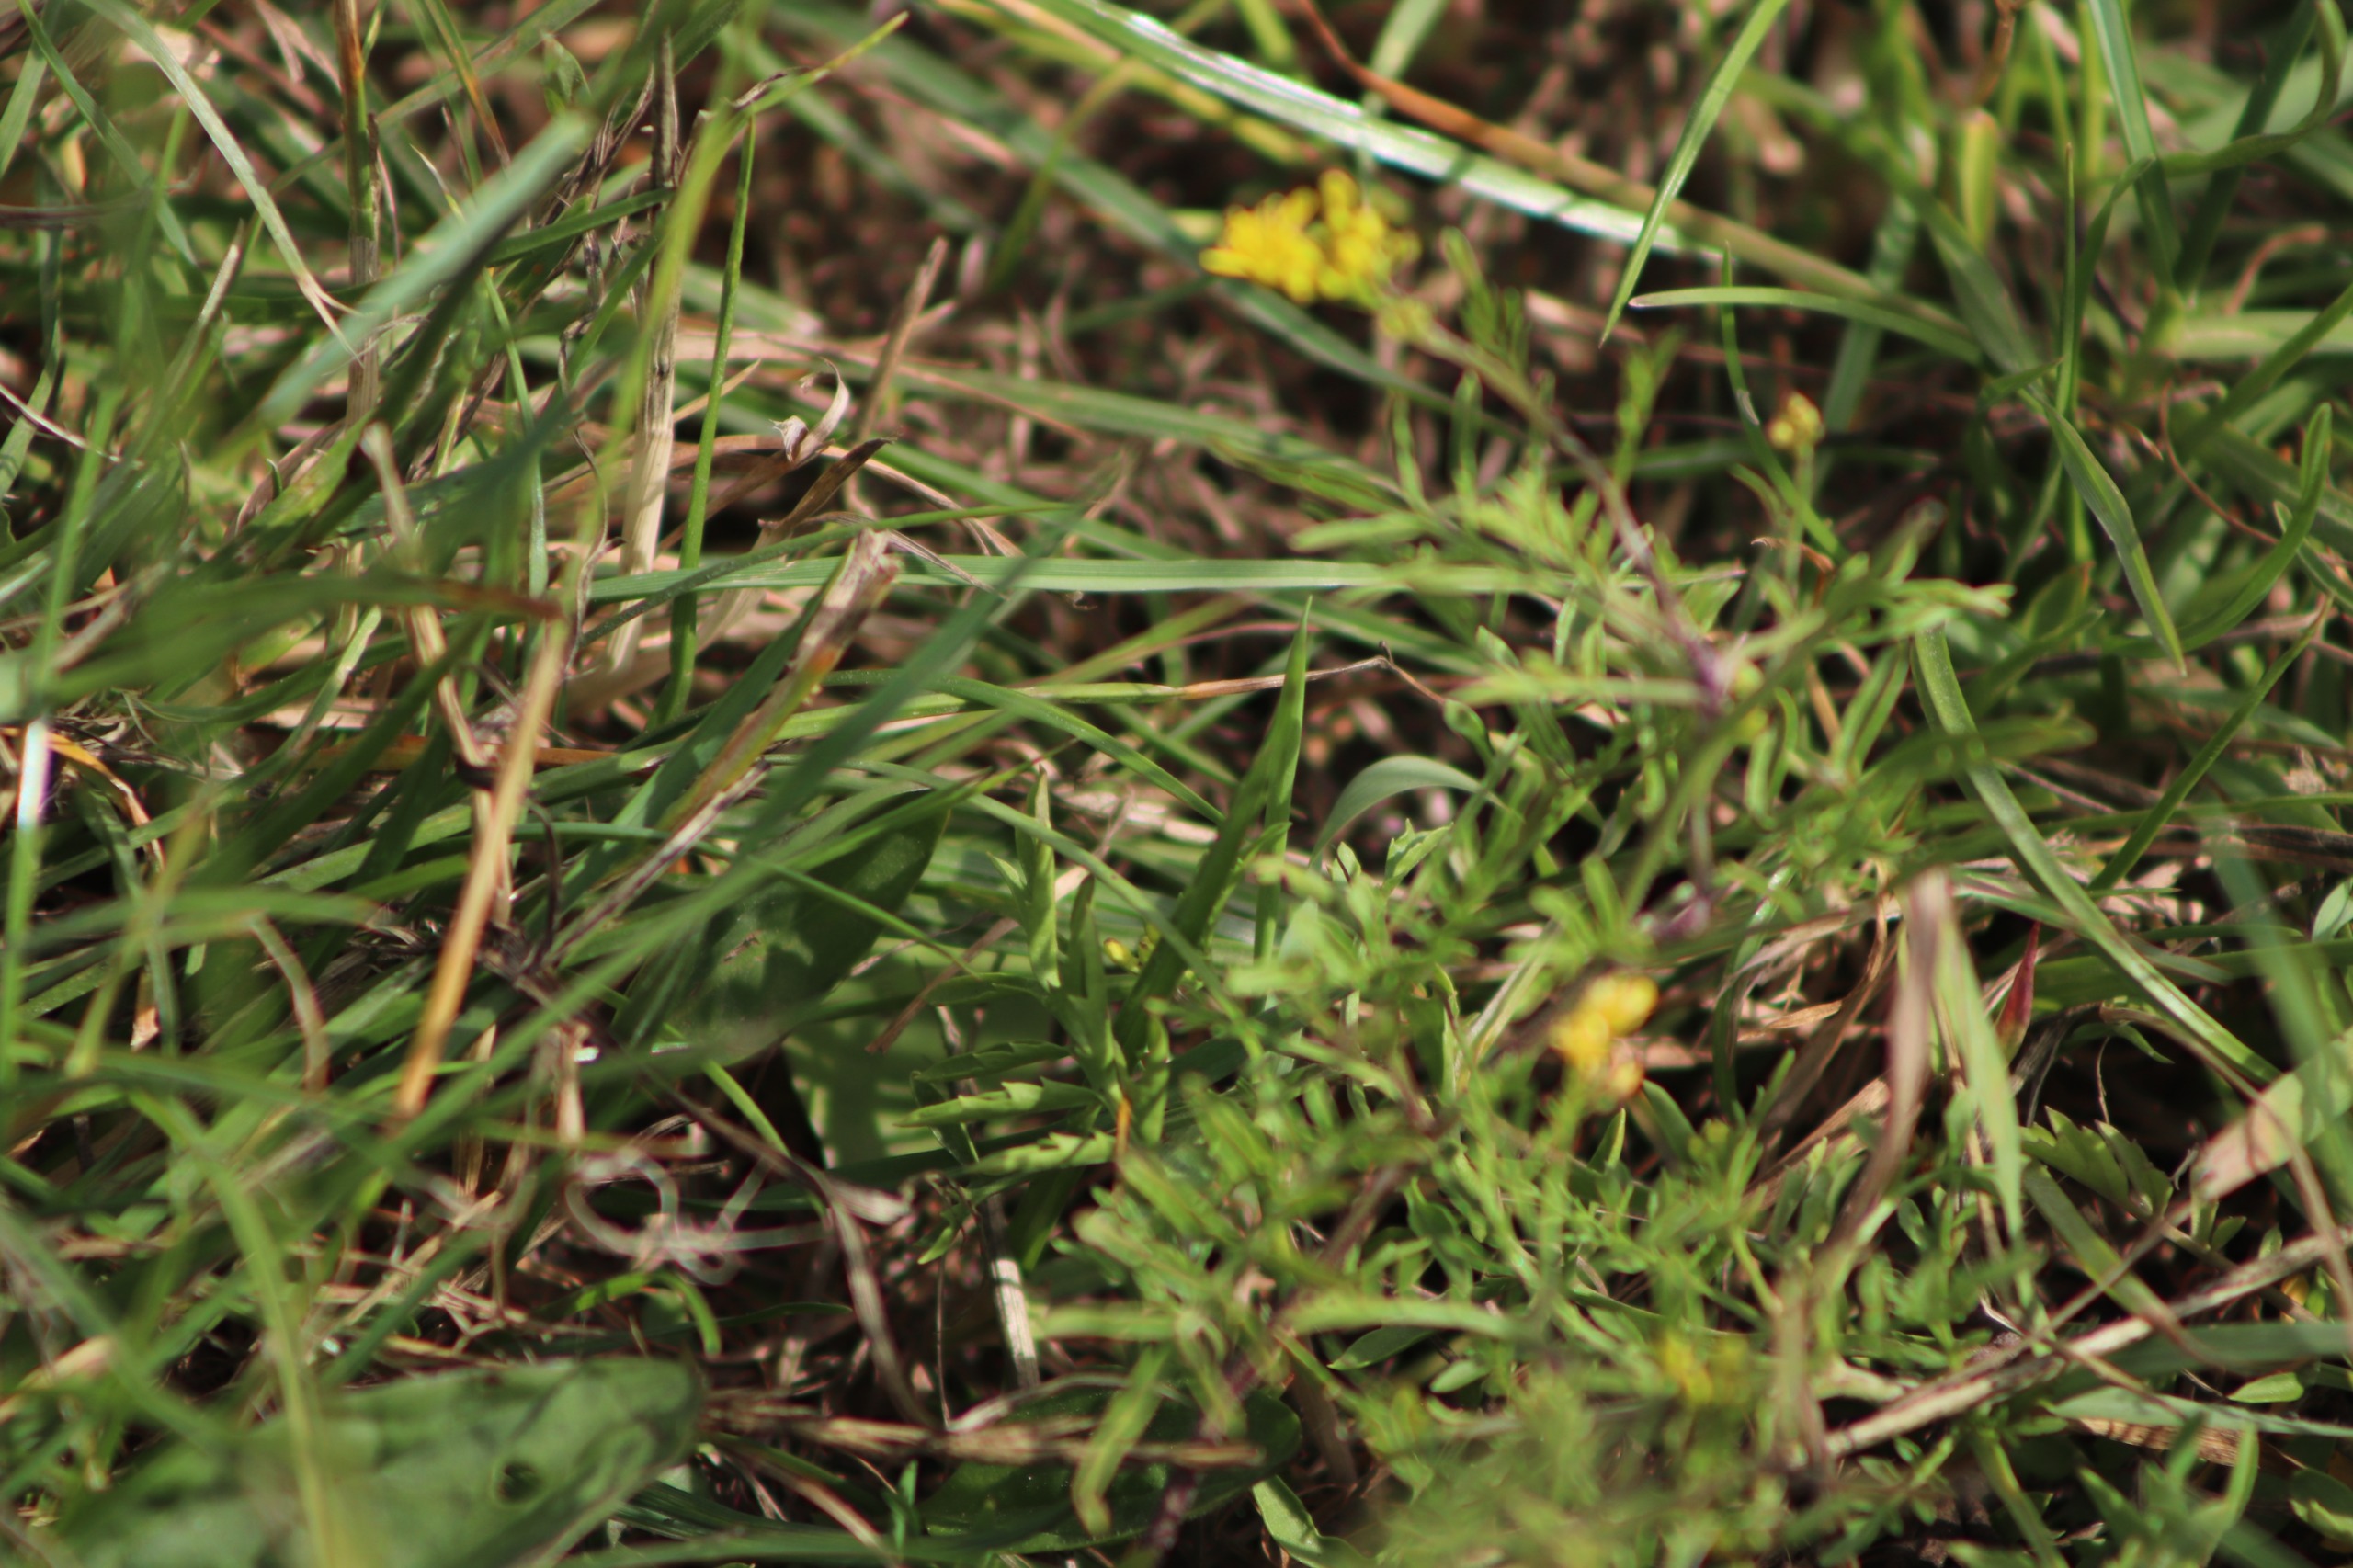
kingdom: Plantae
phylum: Tracheophyta
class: Magnoliopsida
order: Brassicales
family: Brassicaceae
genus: Rorippa
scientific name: Rorippa sylvestris
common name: Vej-guldkarse
